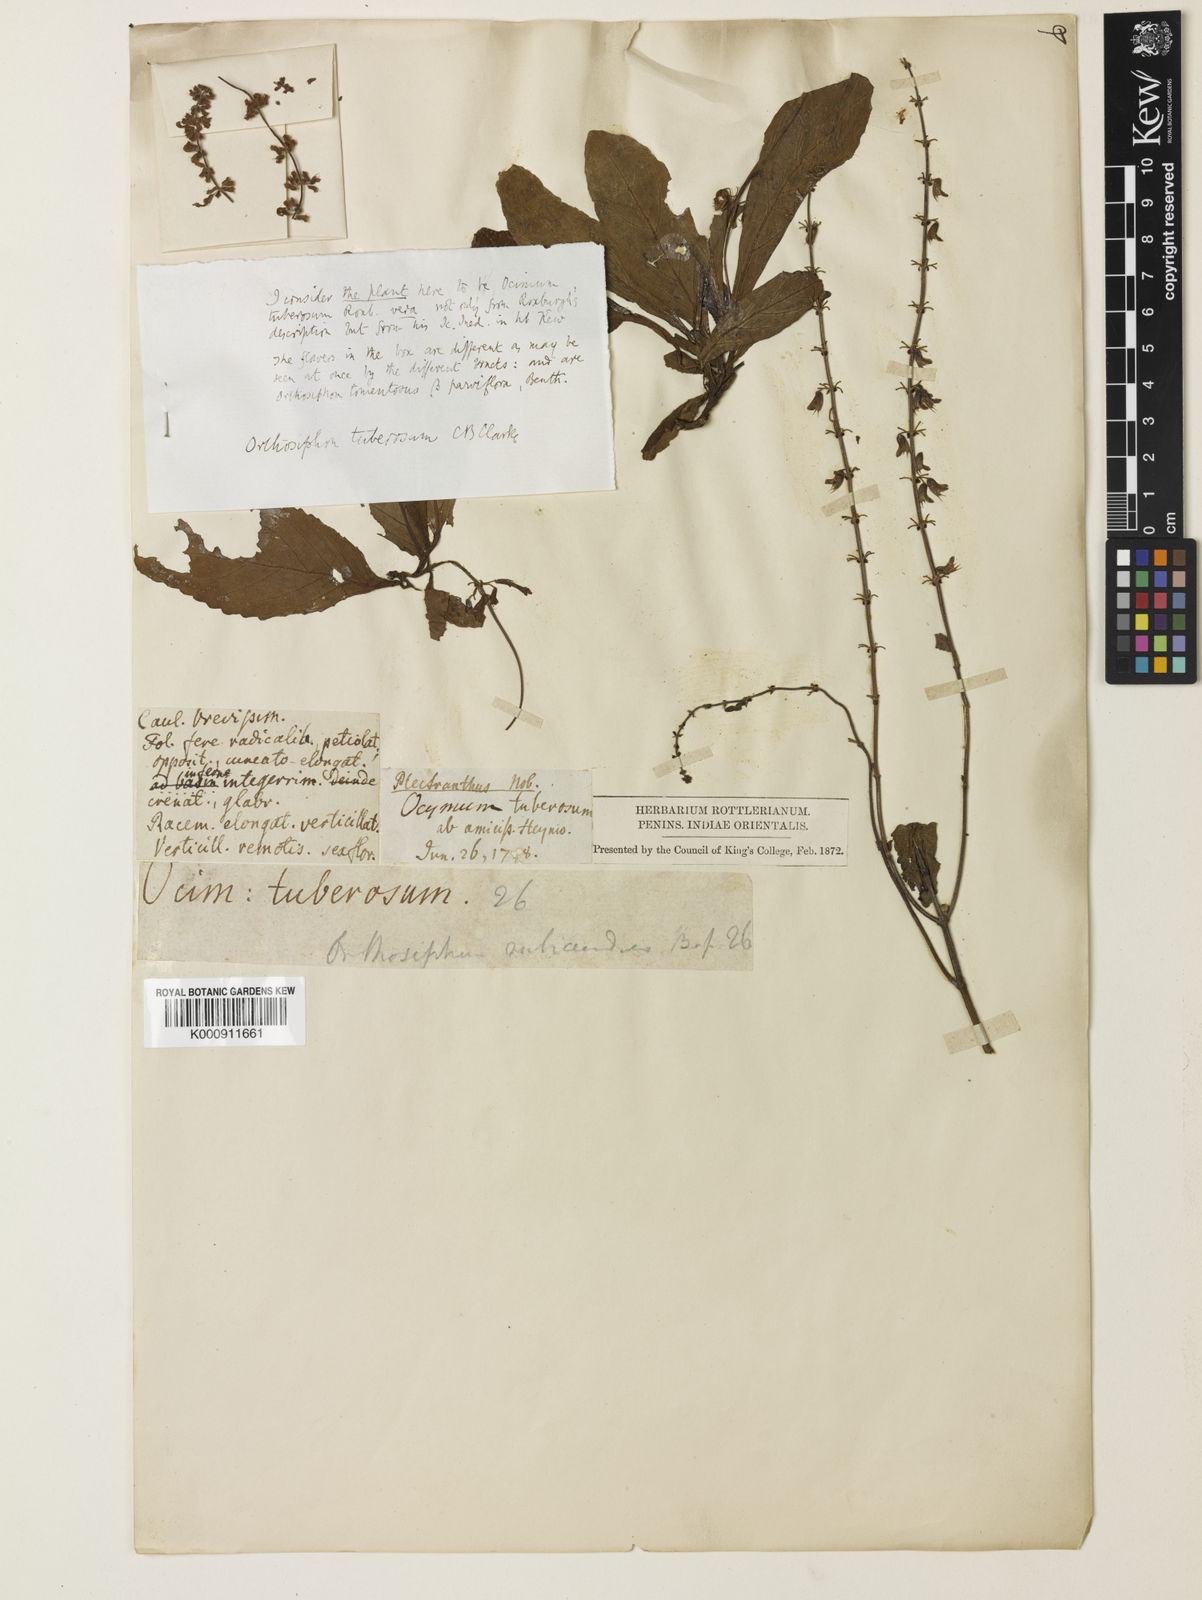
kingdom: Plantae
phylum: Tracheophyta
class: Magnoliopsida
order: Lamiales
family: Lamiaceae
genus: Orthosiphon
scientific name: Orthosiphon rubicundus
